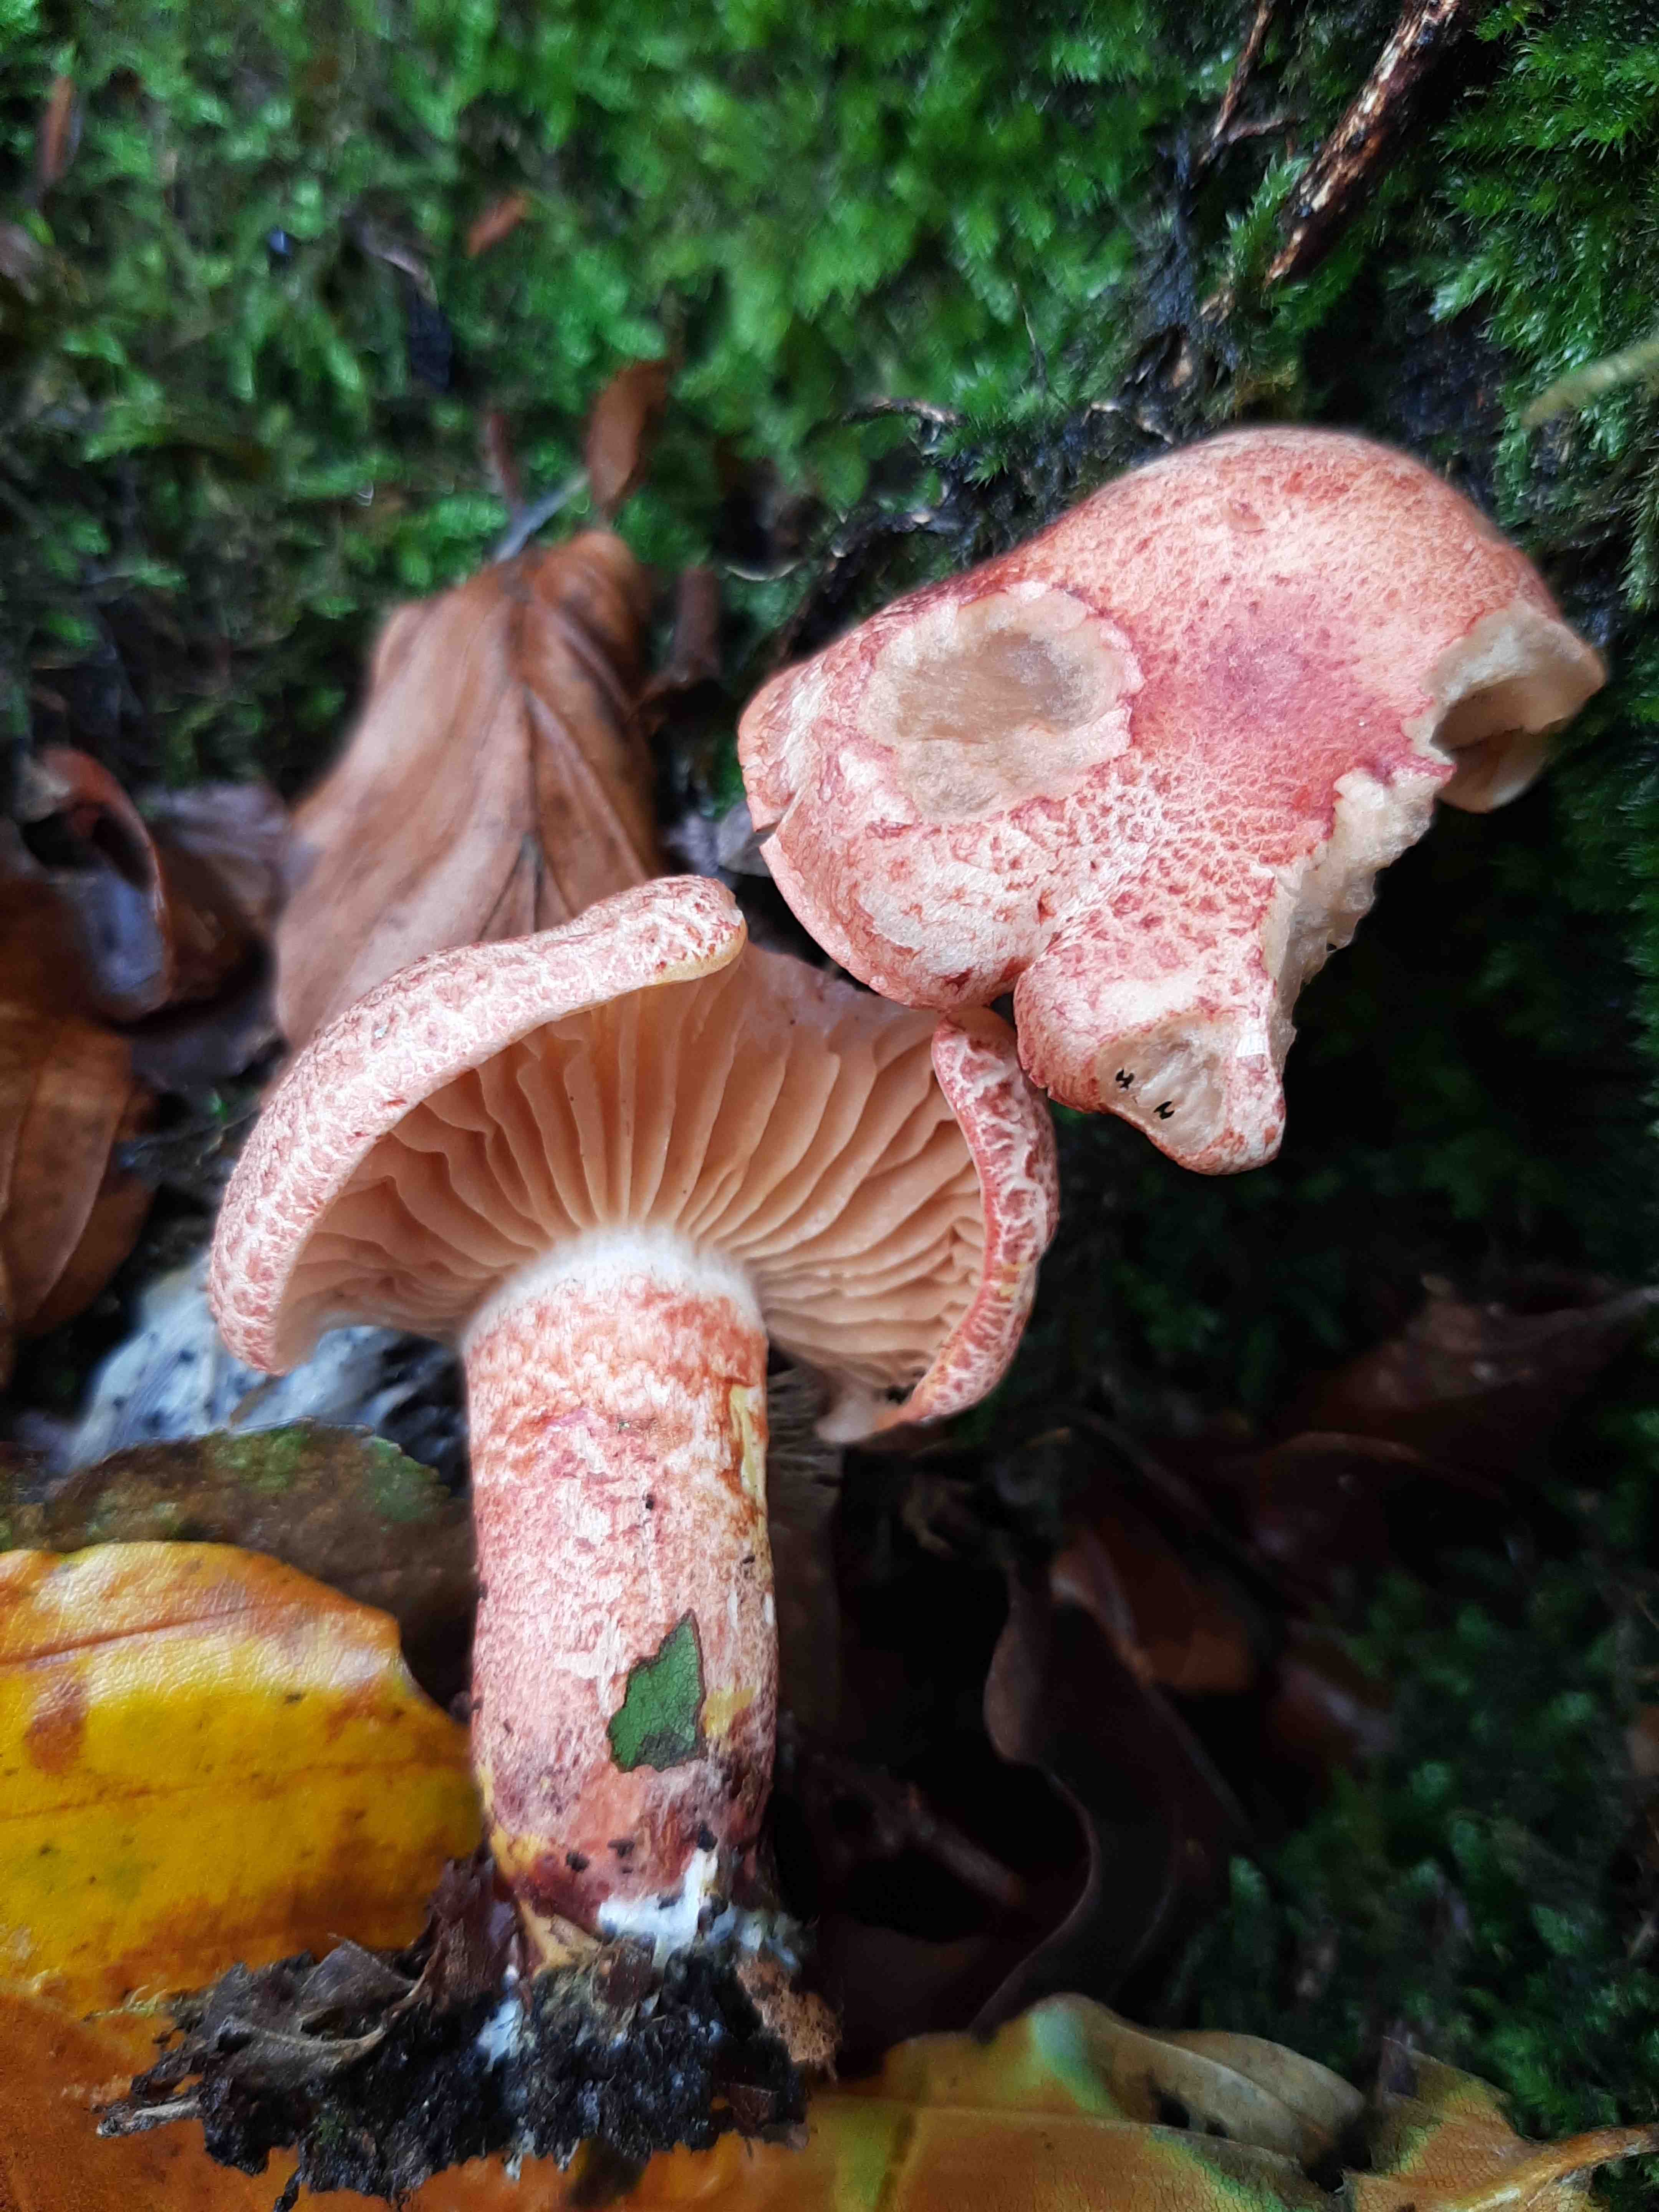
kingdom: Fungi
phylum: Basidiomycota
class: Agaricomycetes
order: Agaricales
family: Cortinariaceae
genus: Cortinarius
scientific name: Cortinarius bolaris
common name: cinnoberskællet slørhat
